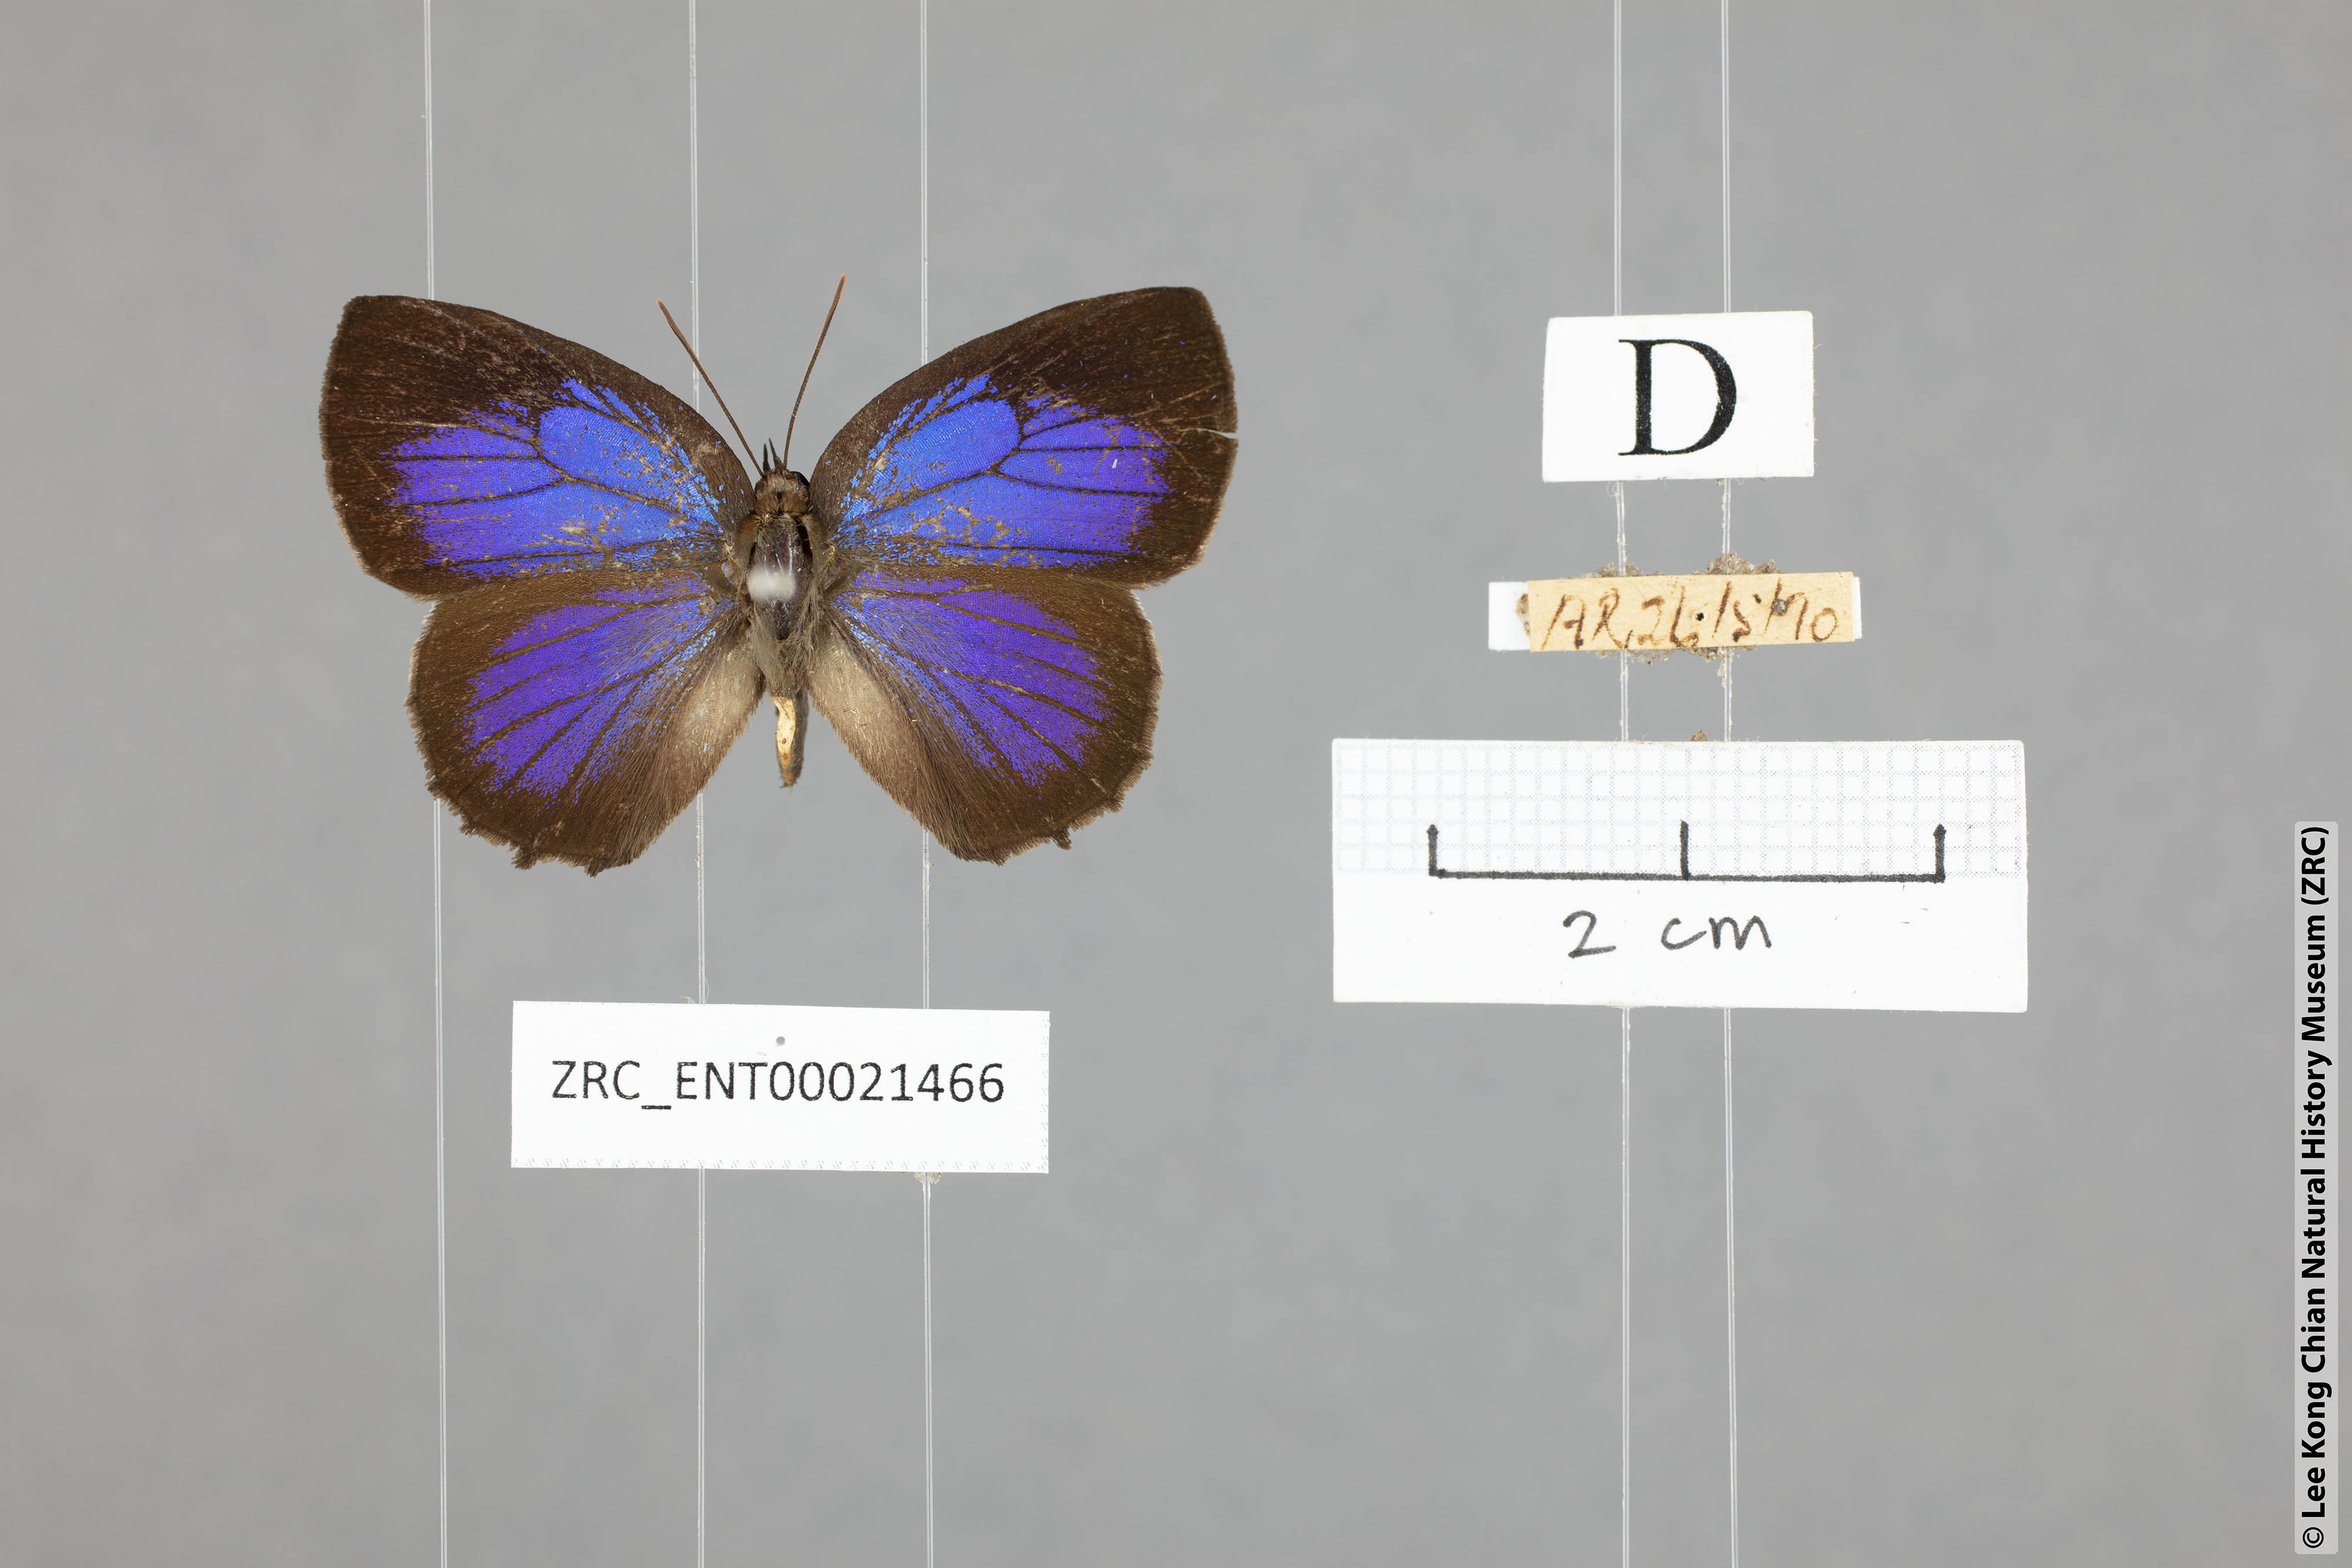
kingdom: Animalia
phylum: Arthropoda
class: Insecta
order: Lepidoptera
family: Lycaenidae
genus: Flos
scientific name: Flos
